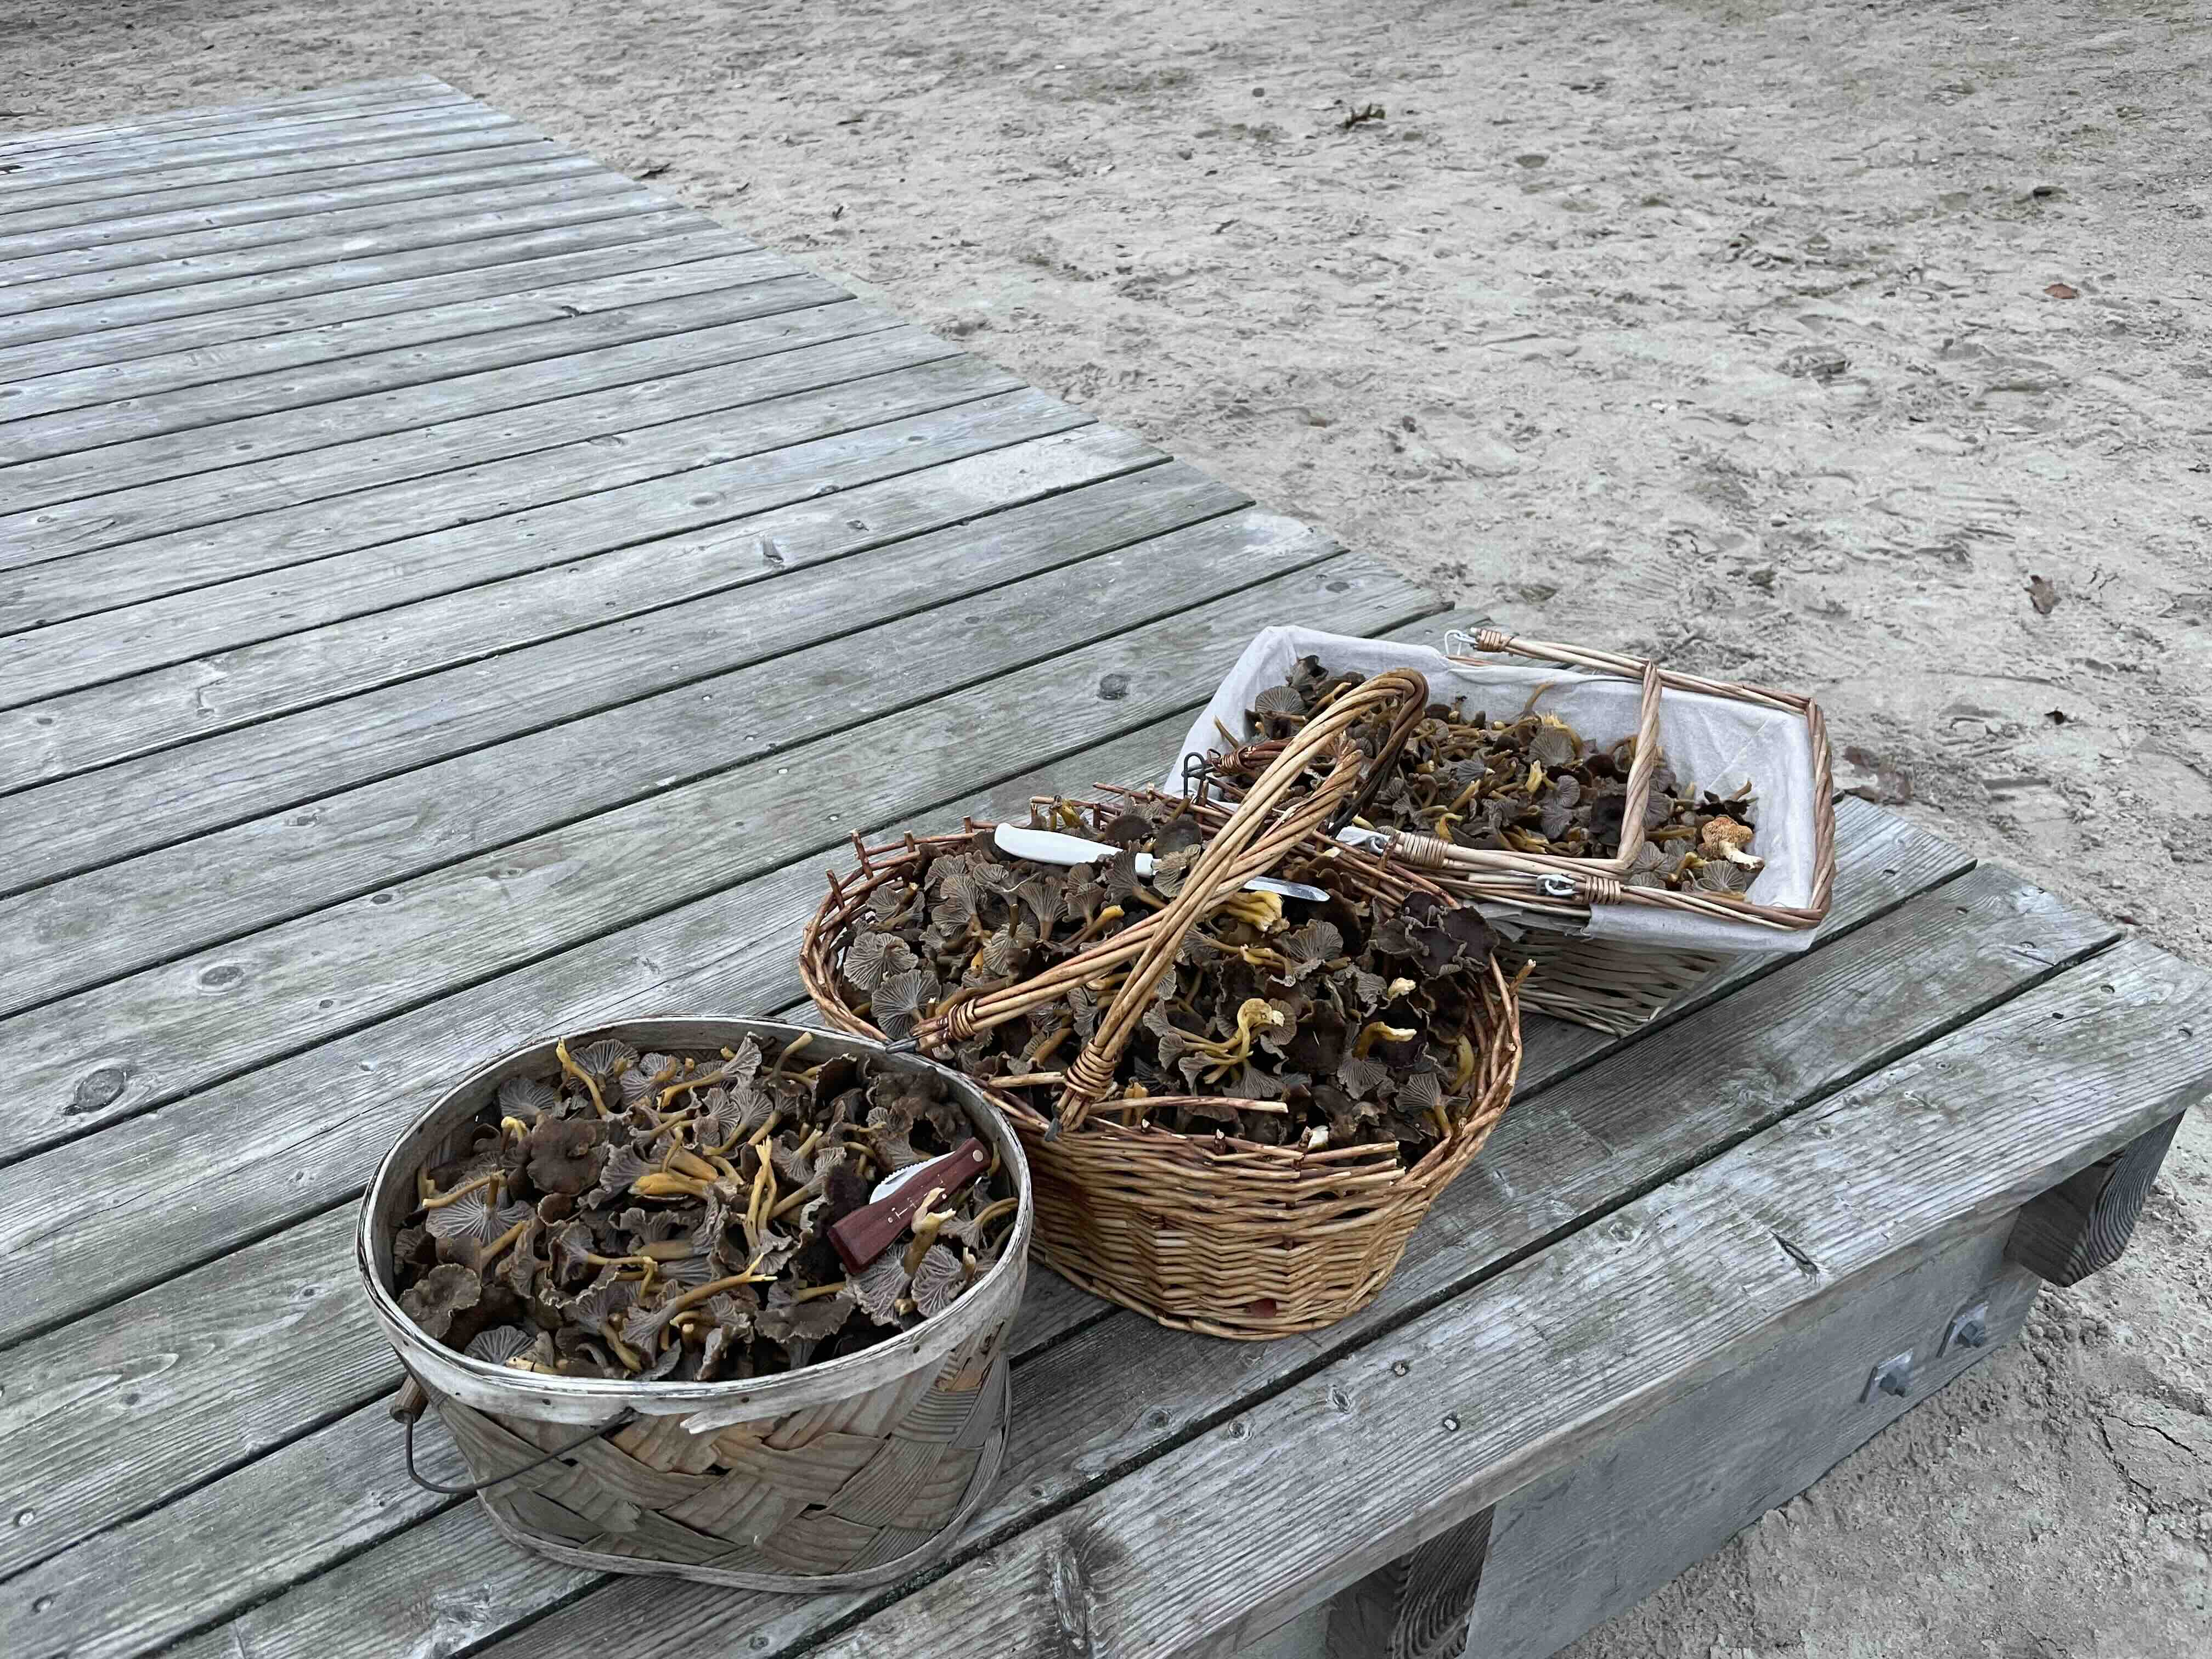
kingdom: Fungi
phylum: Basidiomycota
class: Agaricomycetes
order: Cantharellales
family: Hydnaceae
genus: Craterellus
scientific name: Craterellus tubaeformis
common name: tragt-kantarel
